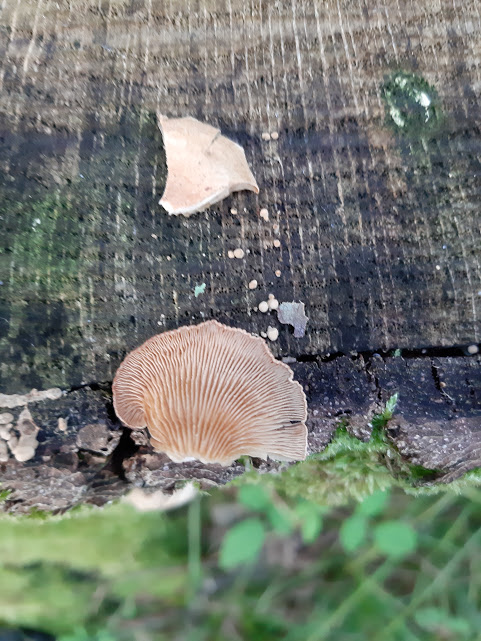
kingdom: Fungi
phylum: Basidiomycota
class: Agaricomycetes
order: Agaricales
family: Mycenaceae
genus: Panellus
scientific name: Panellus stipticus
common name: kliddet epaulethat
